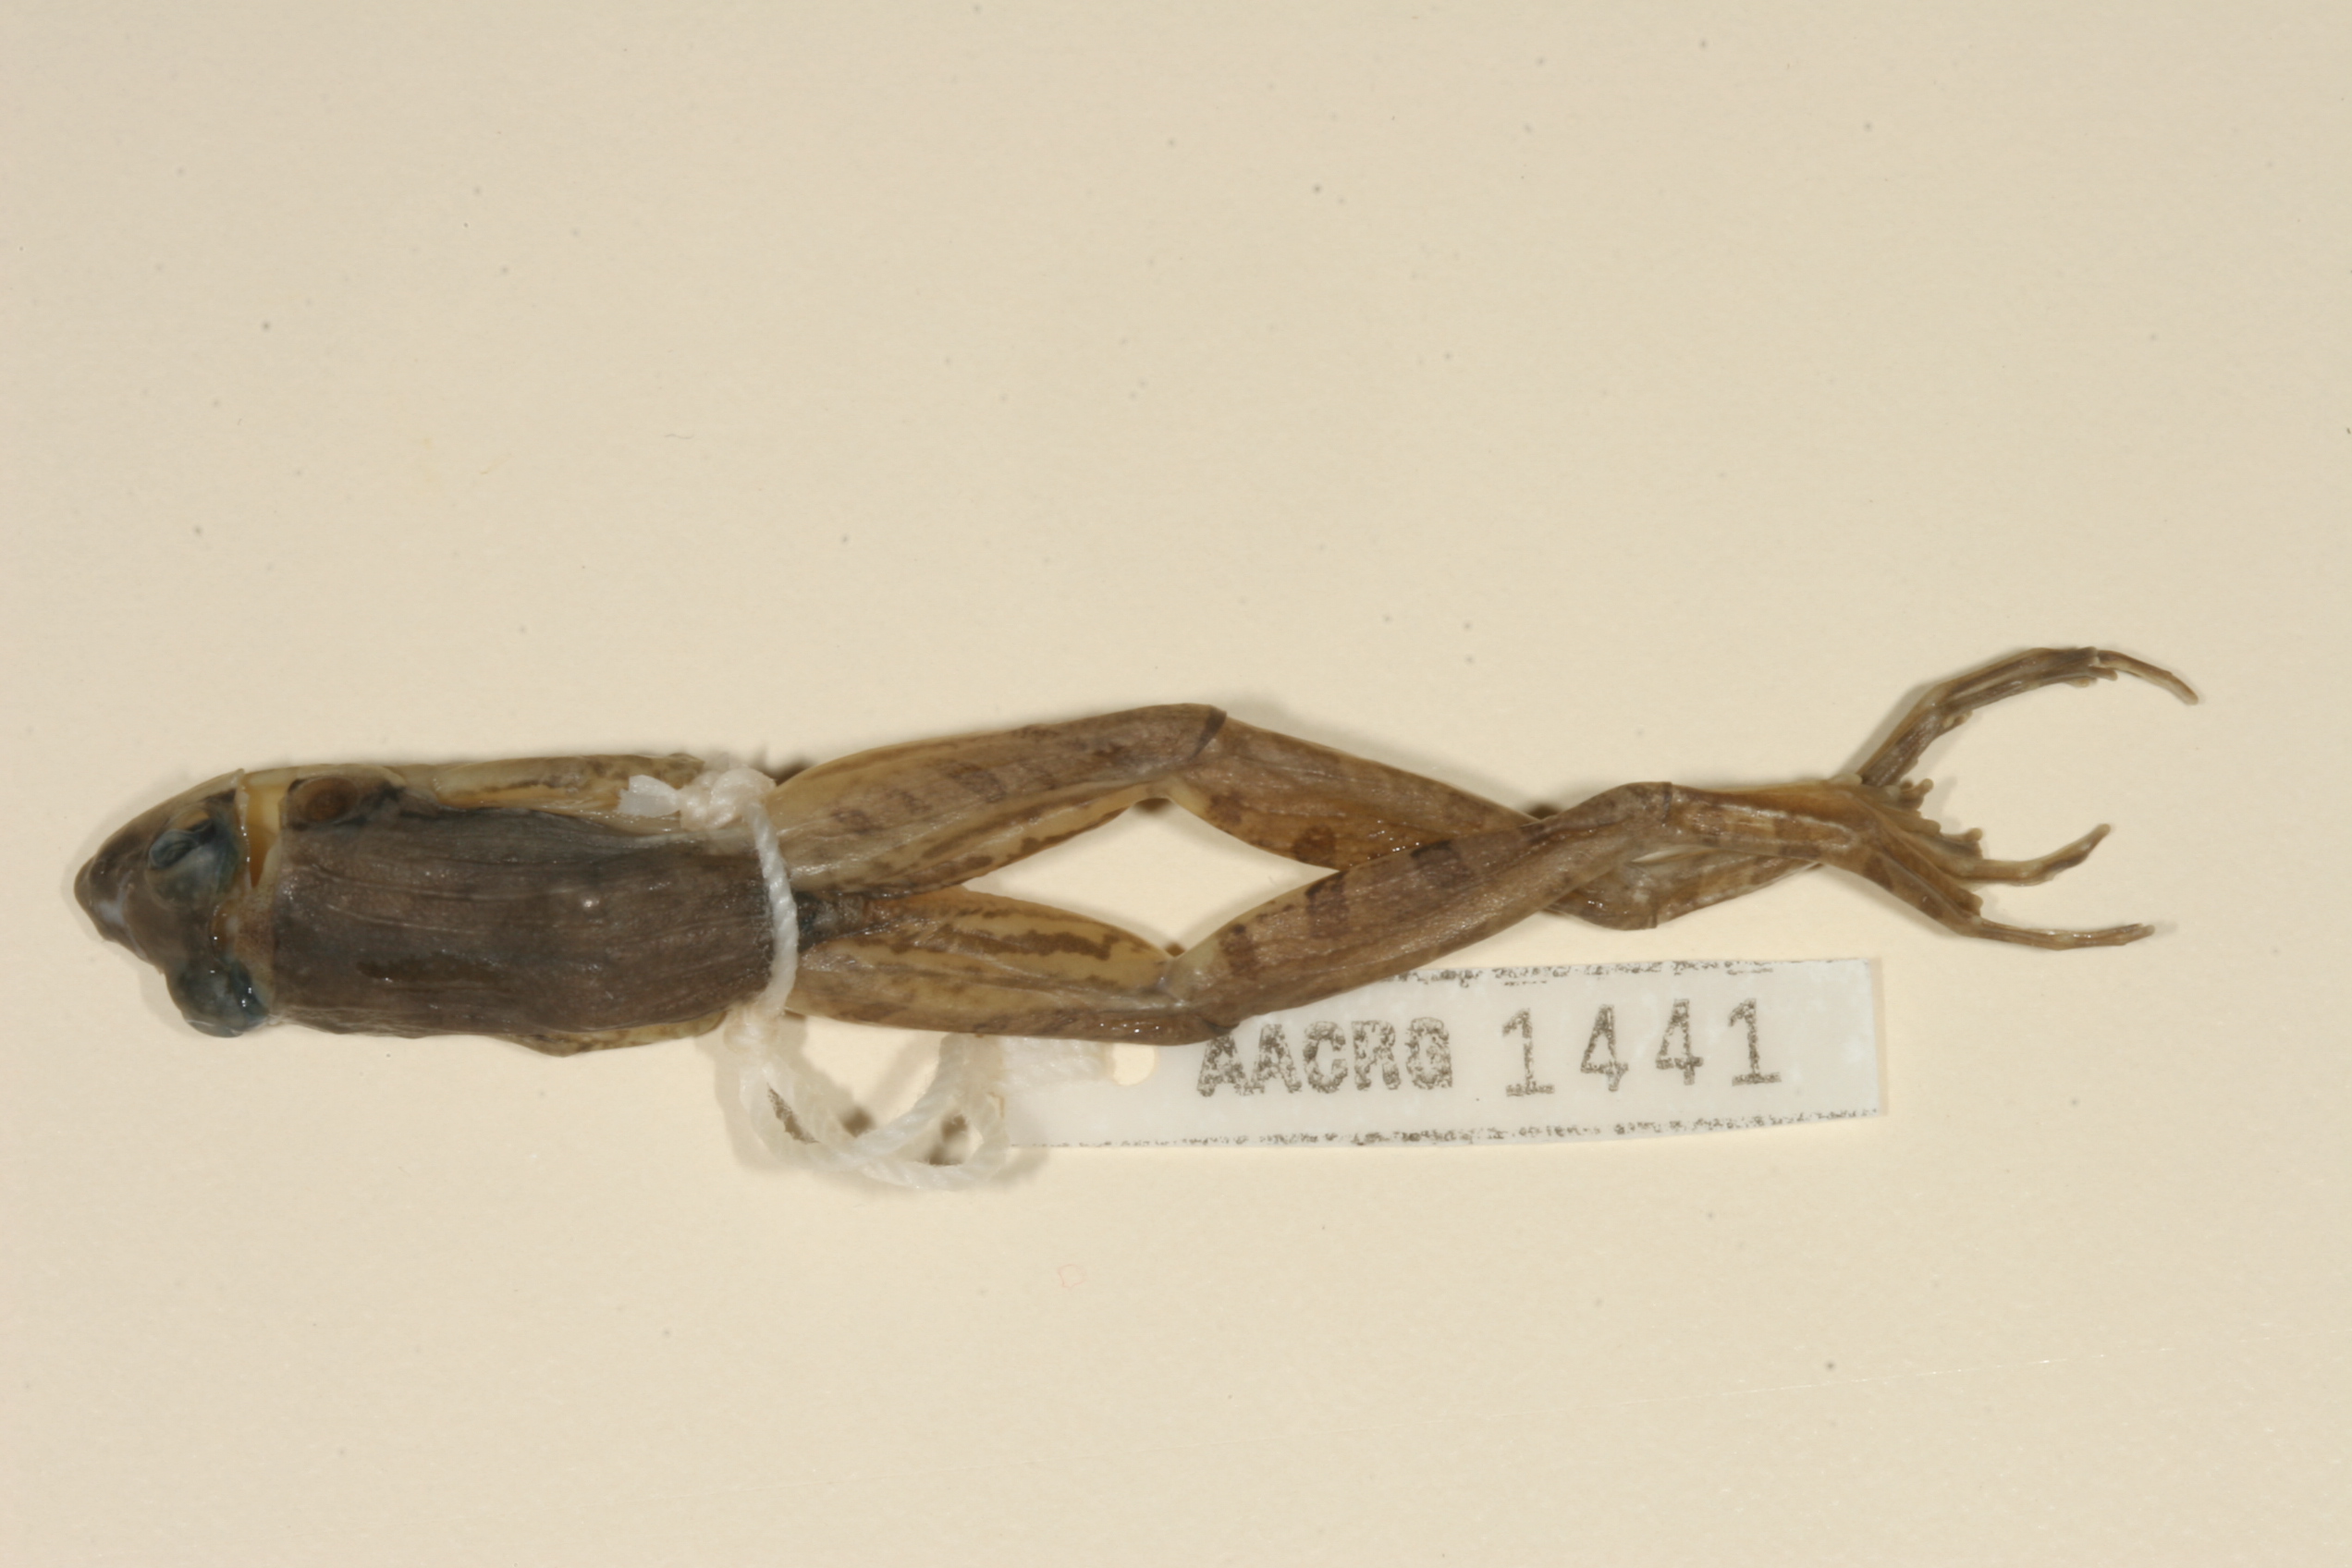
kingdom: Animalia
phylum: Chordata
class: Amphibia
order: Anura
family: Ptychadenidae
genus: Ptychadena
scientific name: Ptychadena anchietae
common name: Anchieta's ridged frog
